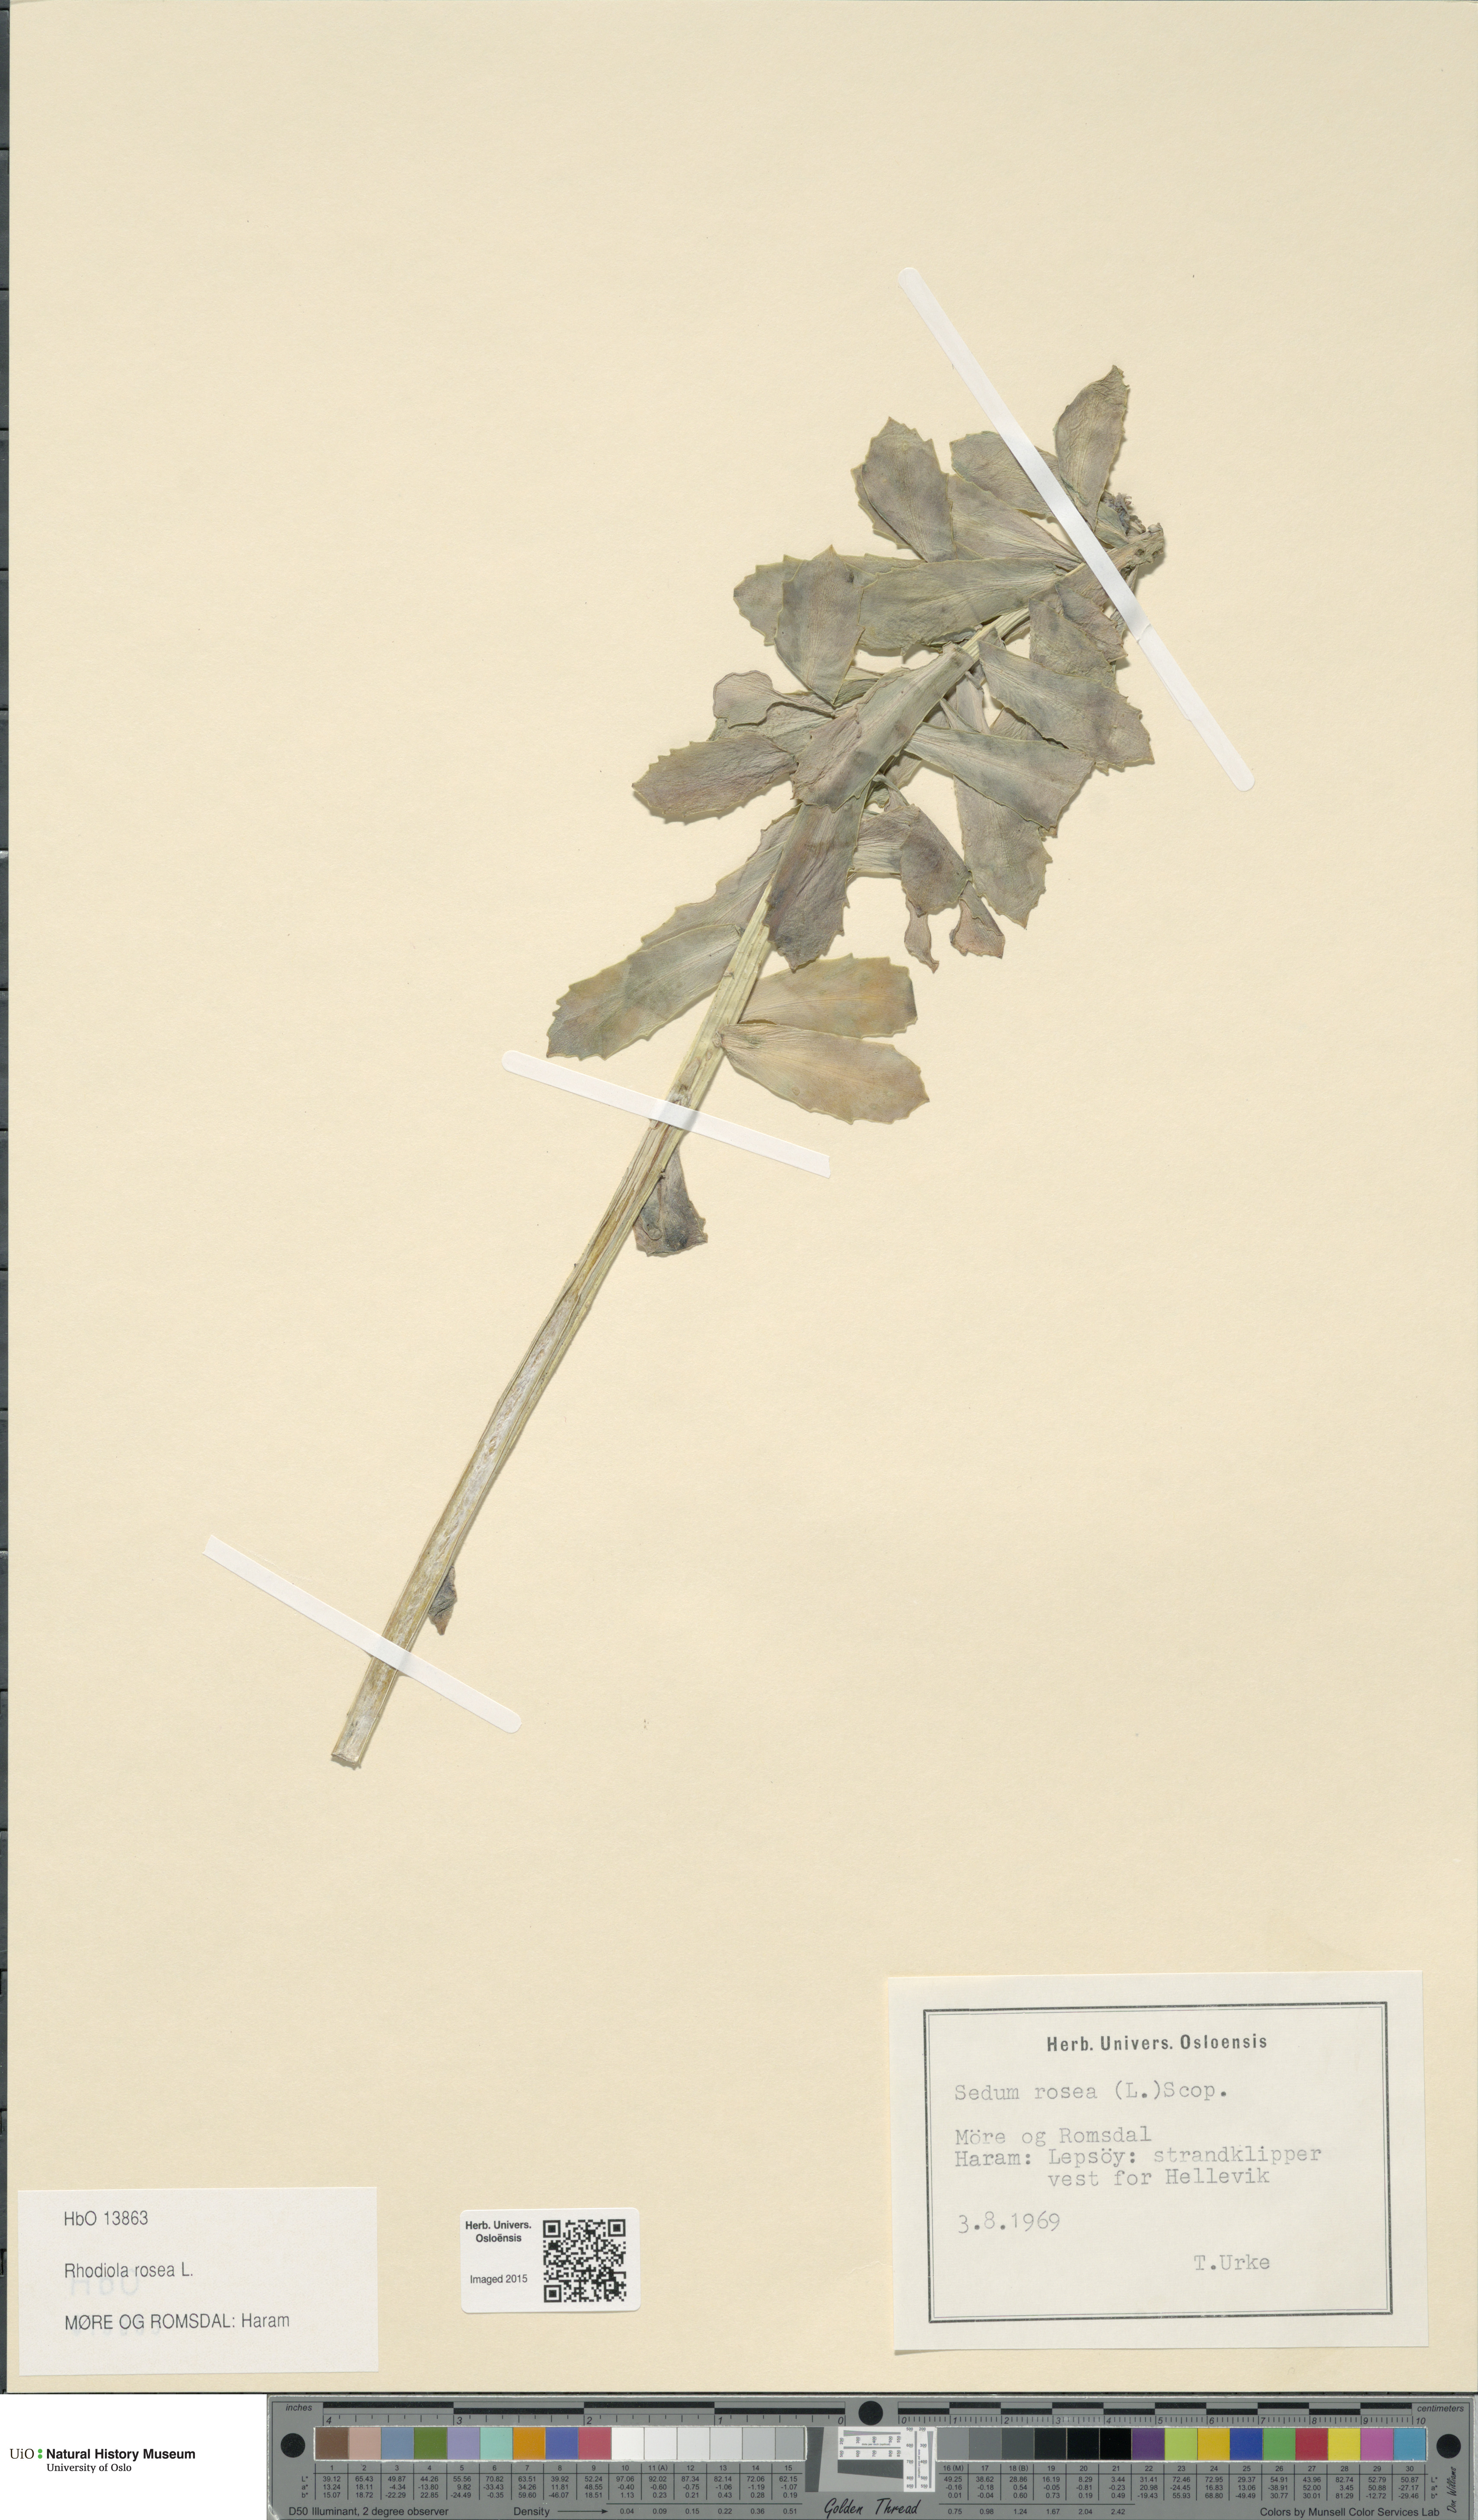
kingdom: Plantae
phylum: Tracheophyta
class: Magnoliopsida
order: Saxifragales
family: Crassulaceae
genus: Rhodiola
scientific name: Rhodiola rosea
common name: Roseroot
